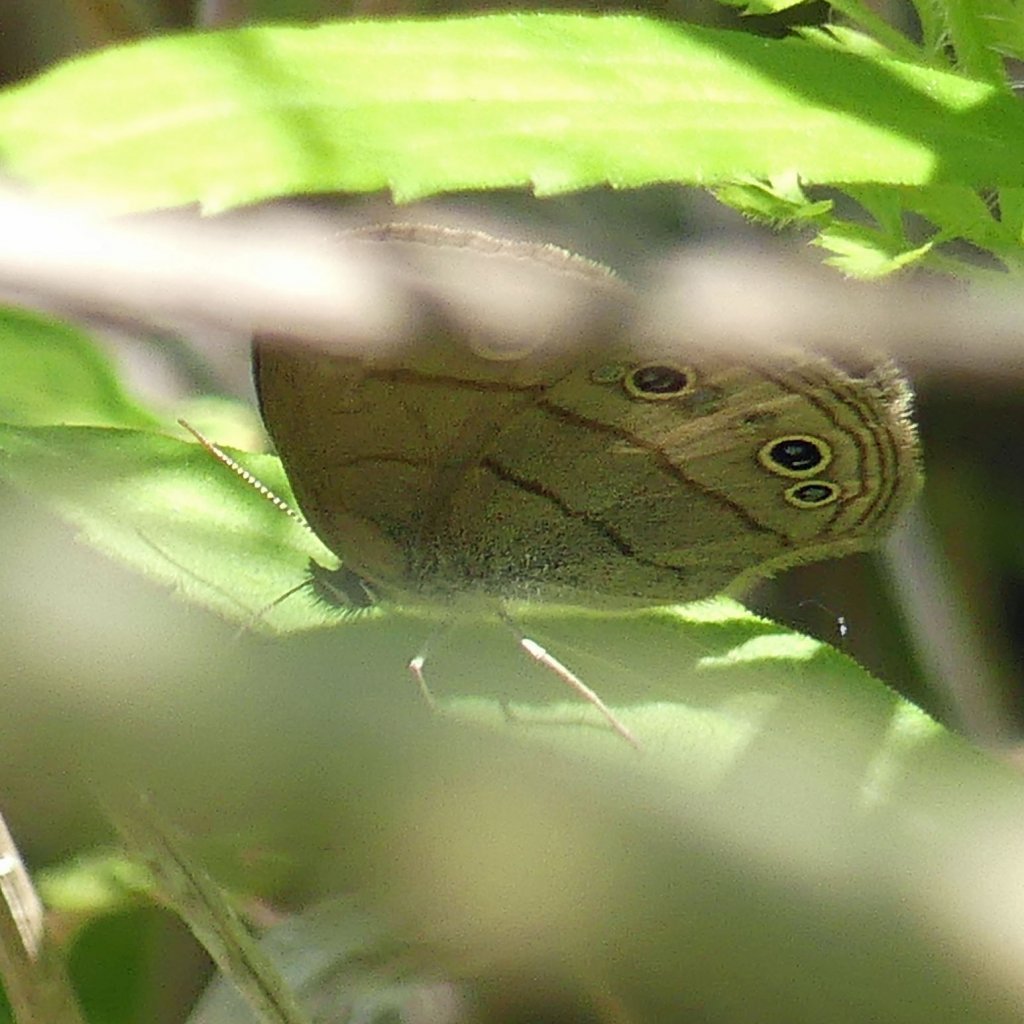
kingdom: Animalia
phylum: Arthropoda
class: Insecta
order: Lepidoptera
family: Nymphalidae
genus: Euptychia
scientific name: Euptychia cymela
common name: Little Wood Satyr
